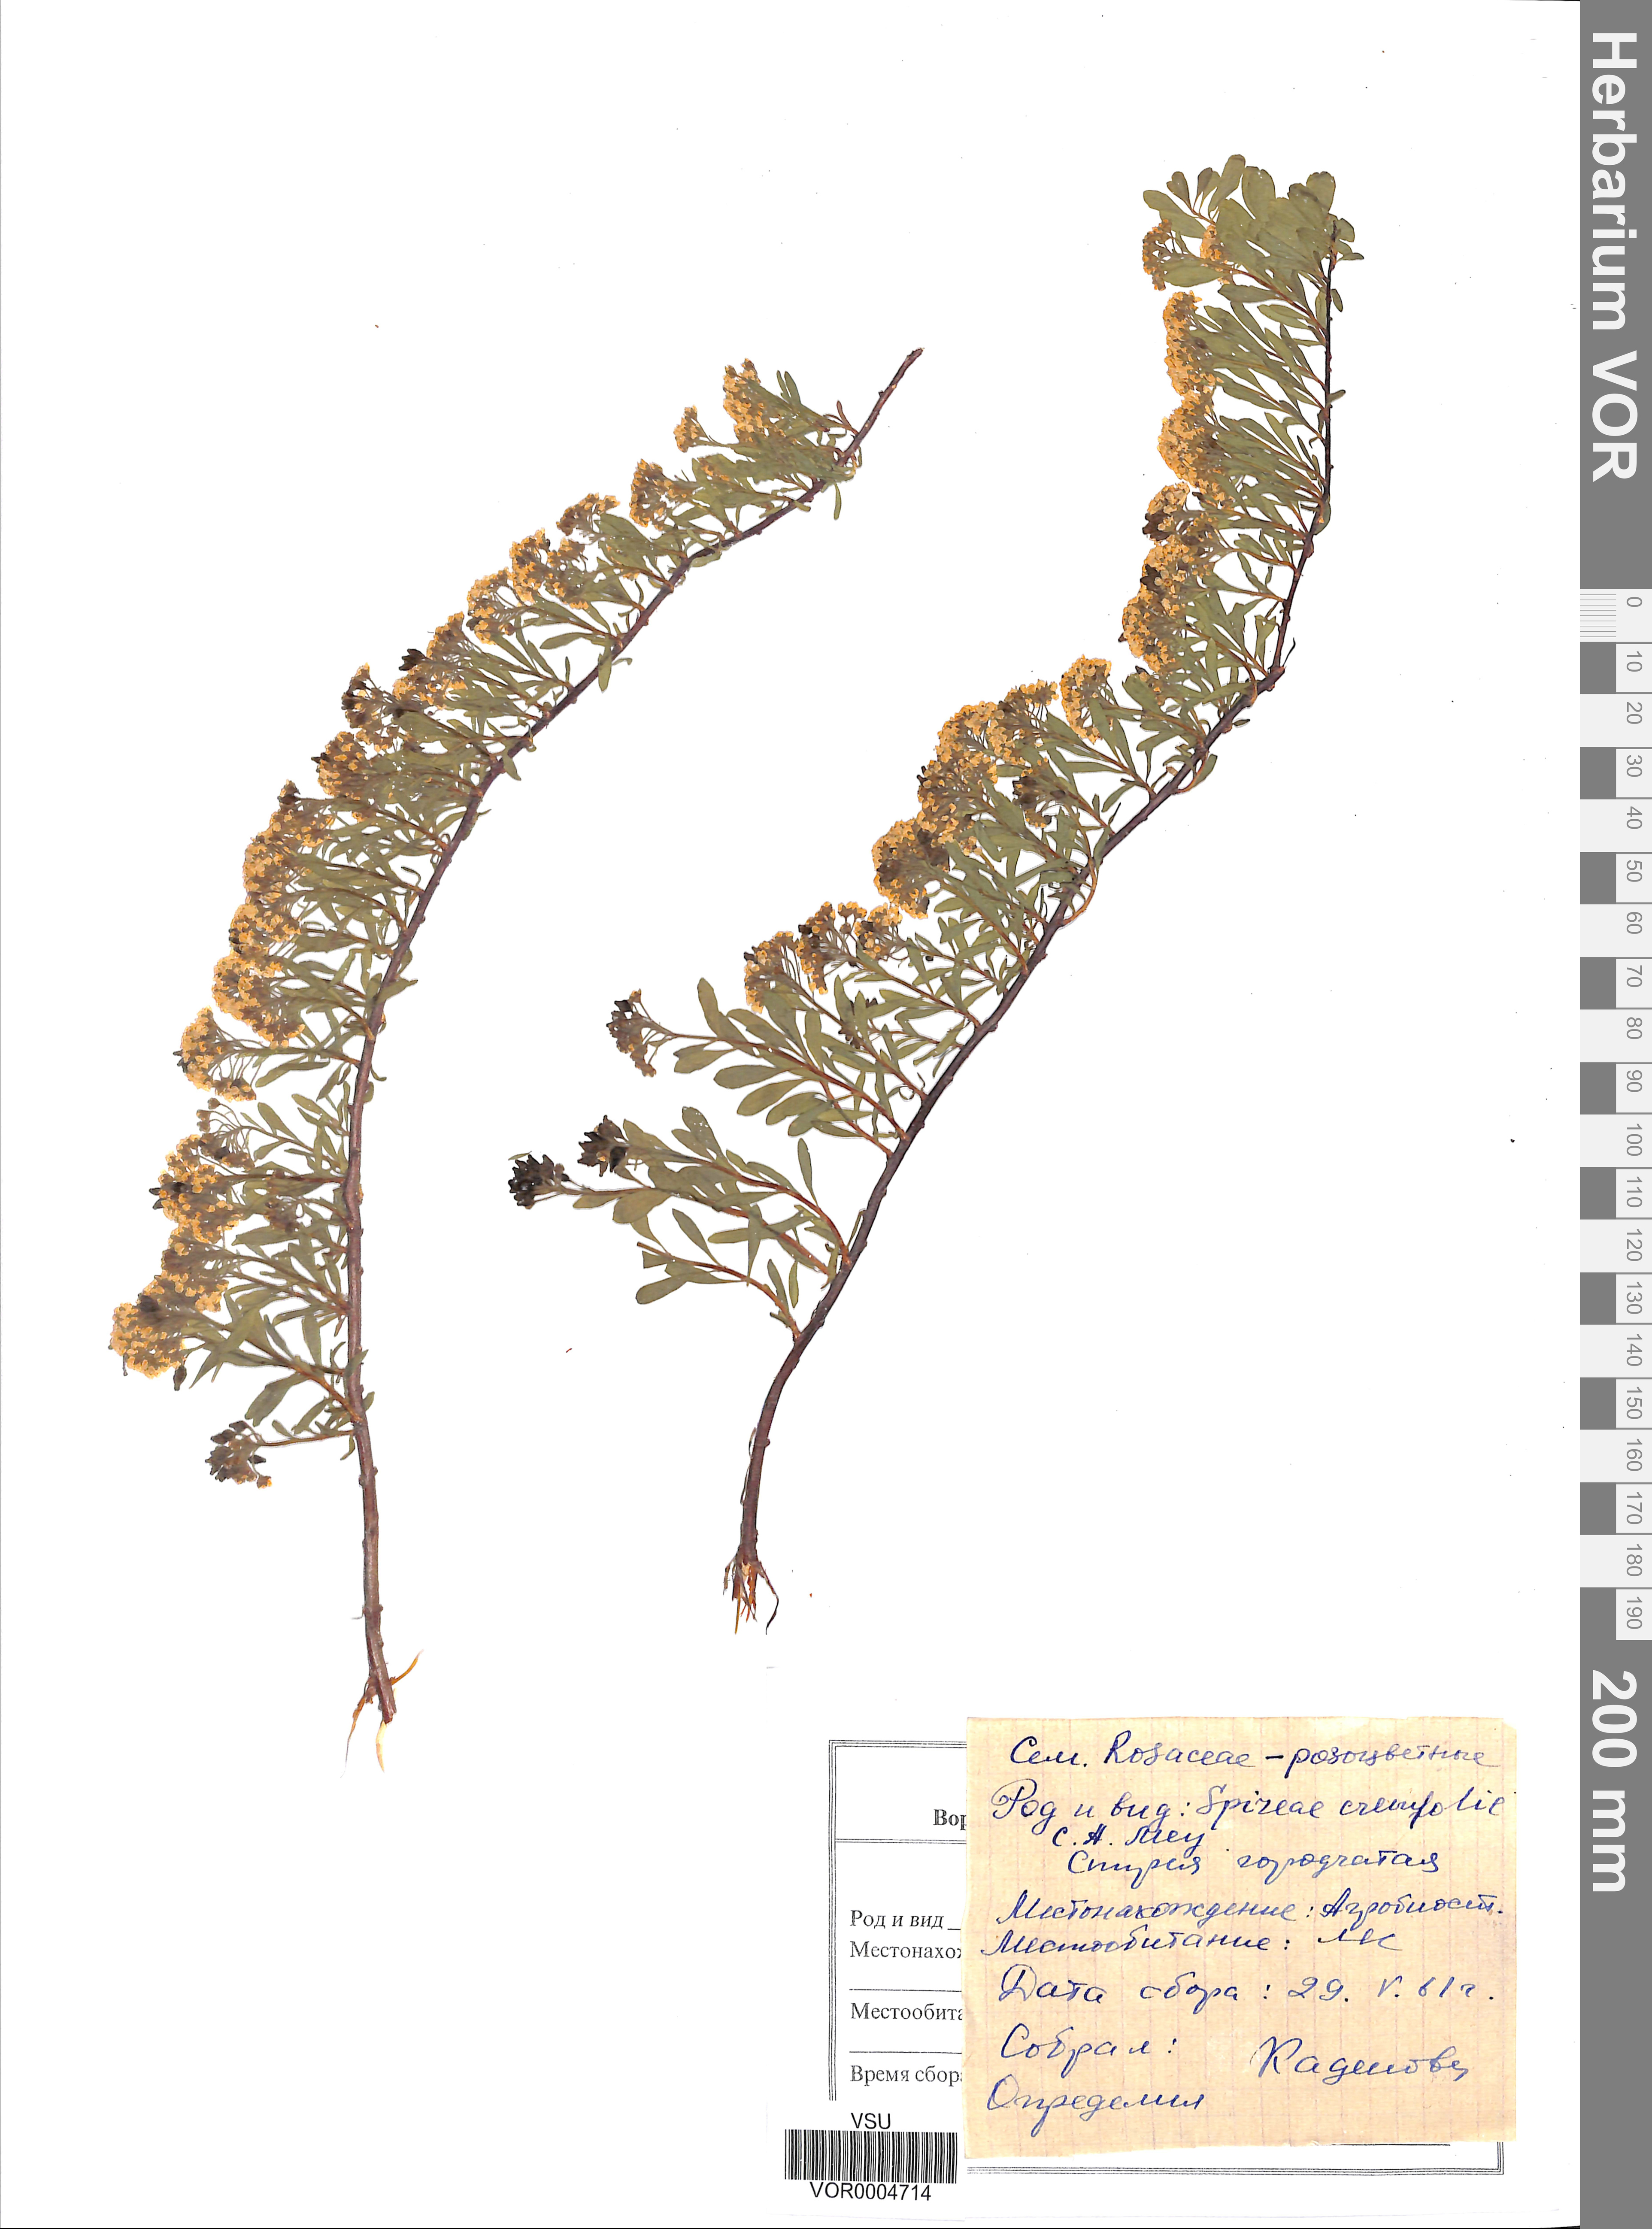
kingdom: Plantae
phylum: Tracheophyta
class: Magnoliopsida
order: Rosales
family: Rosaceae
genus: Spiraea
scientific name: Spiraea crenata
